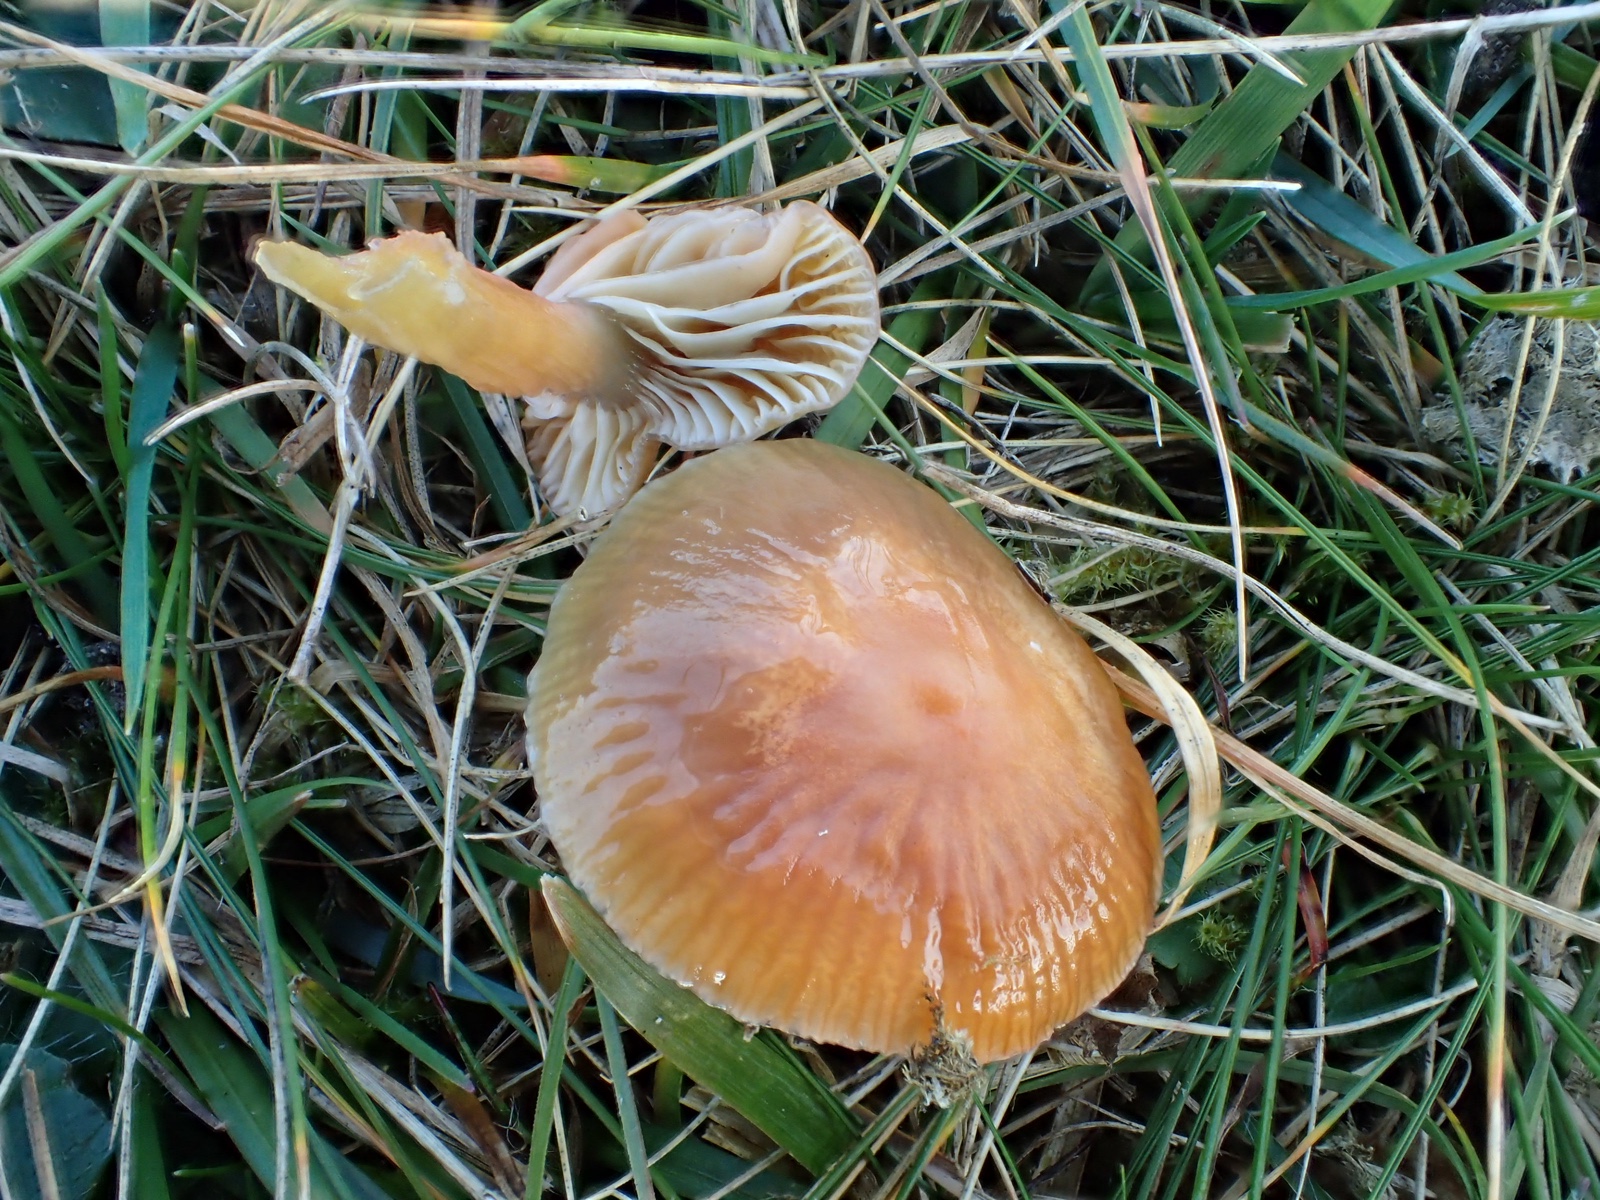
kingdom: Fungi
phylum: Basidiomycota
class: Agaricomycetes
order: Agaricales
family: Hygrophoraceae
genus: Gliophorus
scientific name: Gliophorus laetus
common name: brusk-vokshat
